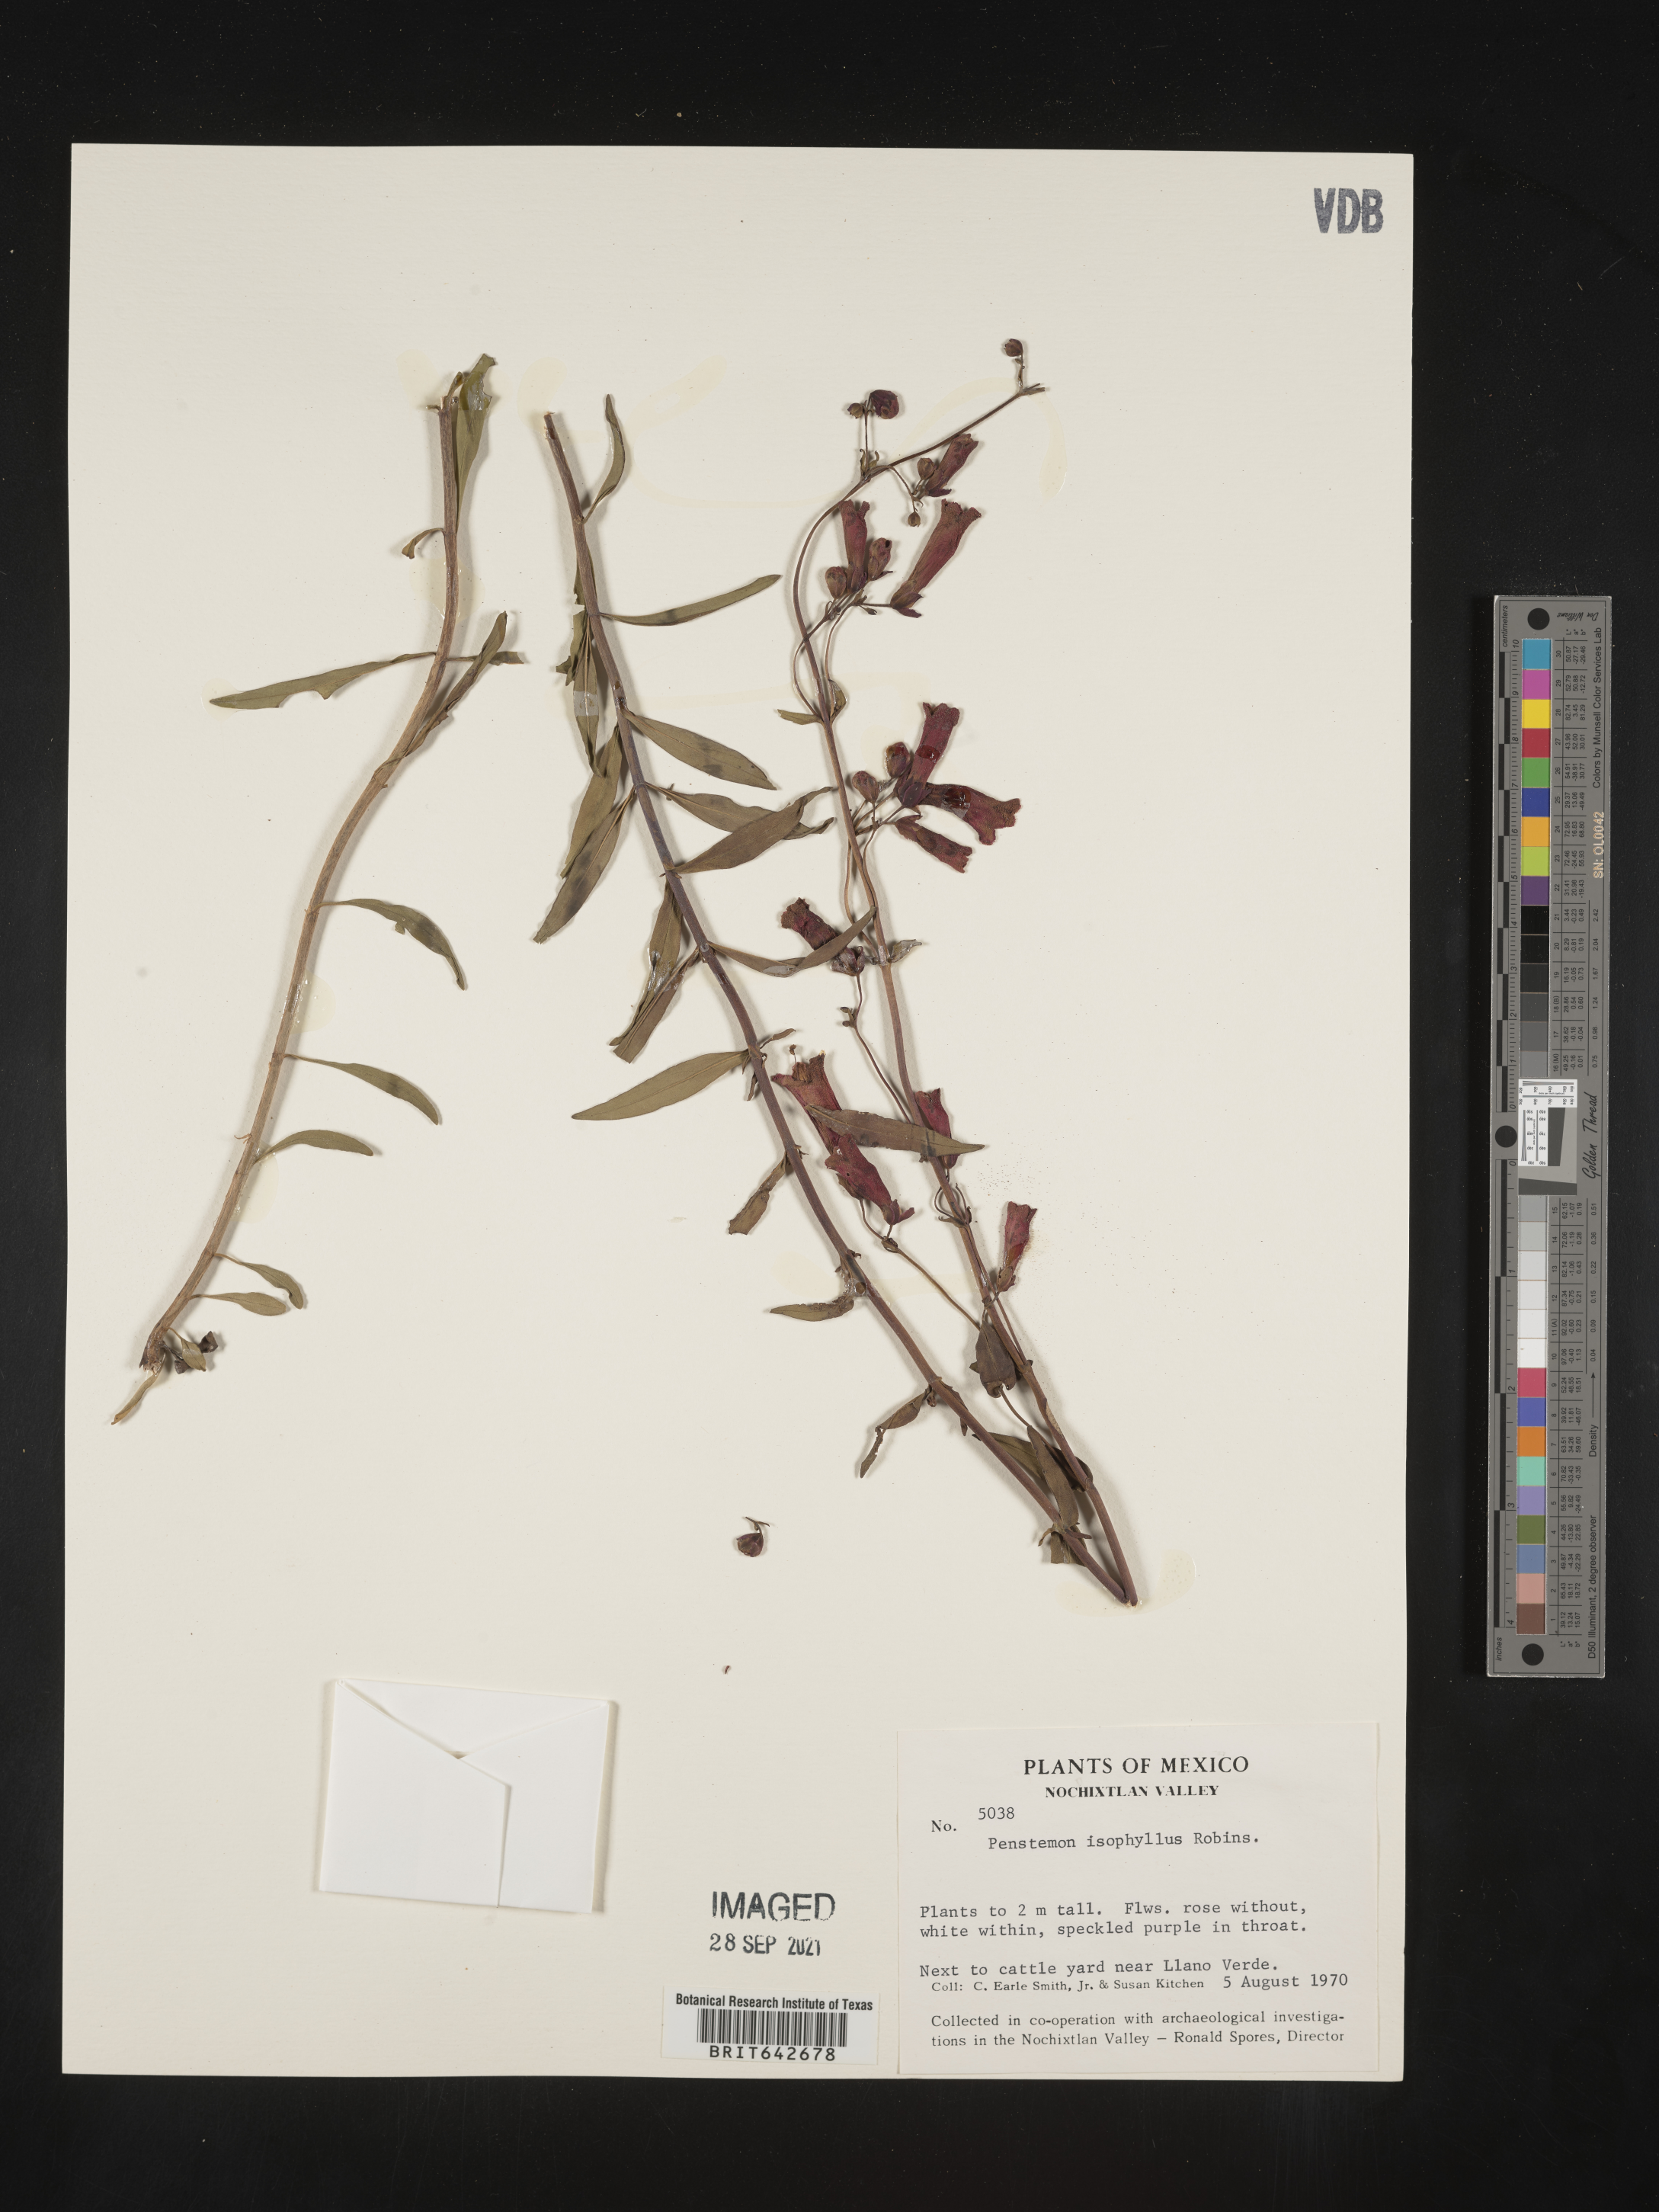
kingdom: Plantae
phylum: Tracheophyta
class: Magnoliopsida
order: Lamiales
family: Plantaginaceae
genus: Penstemon
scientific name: Penstemon
